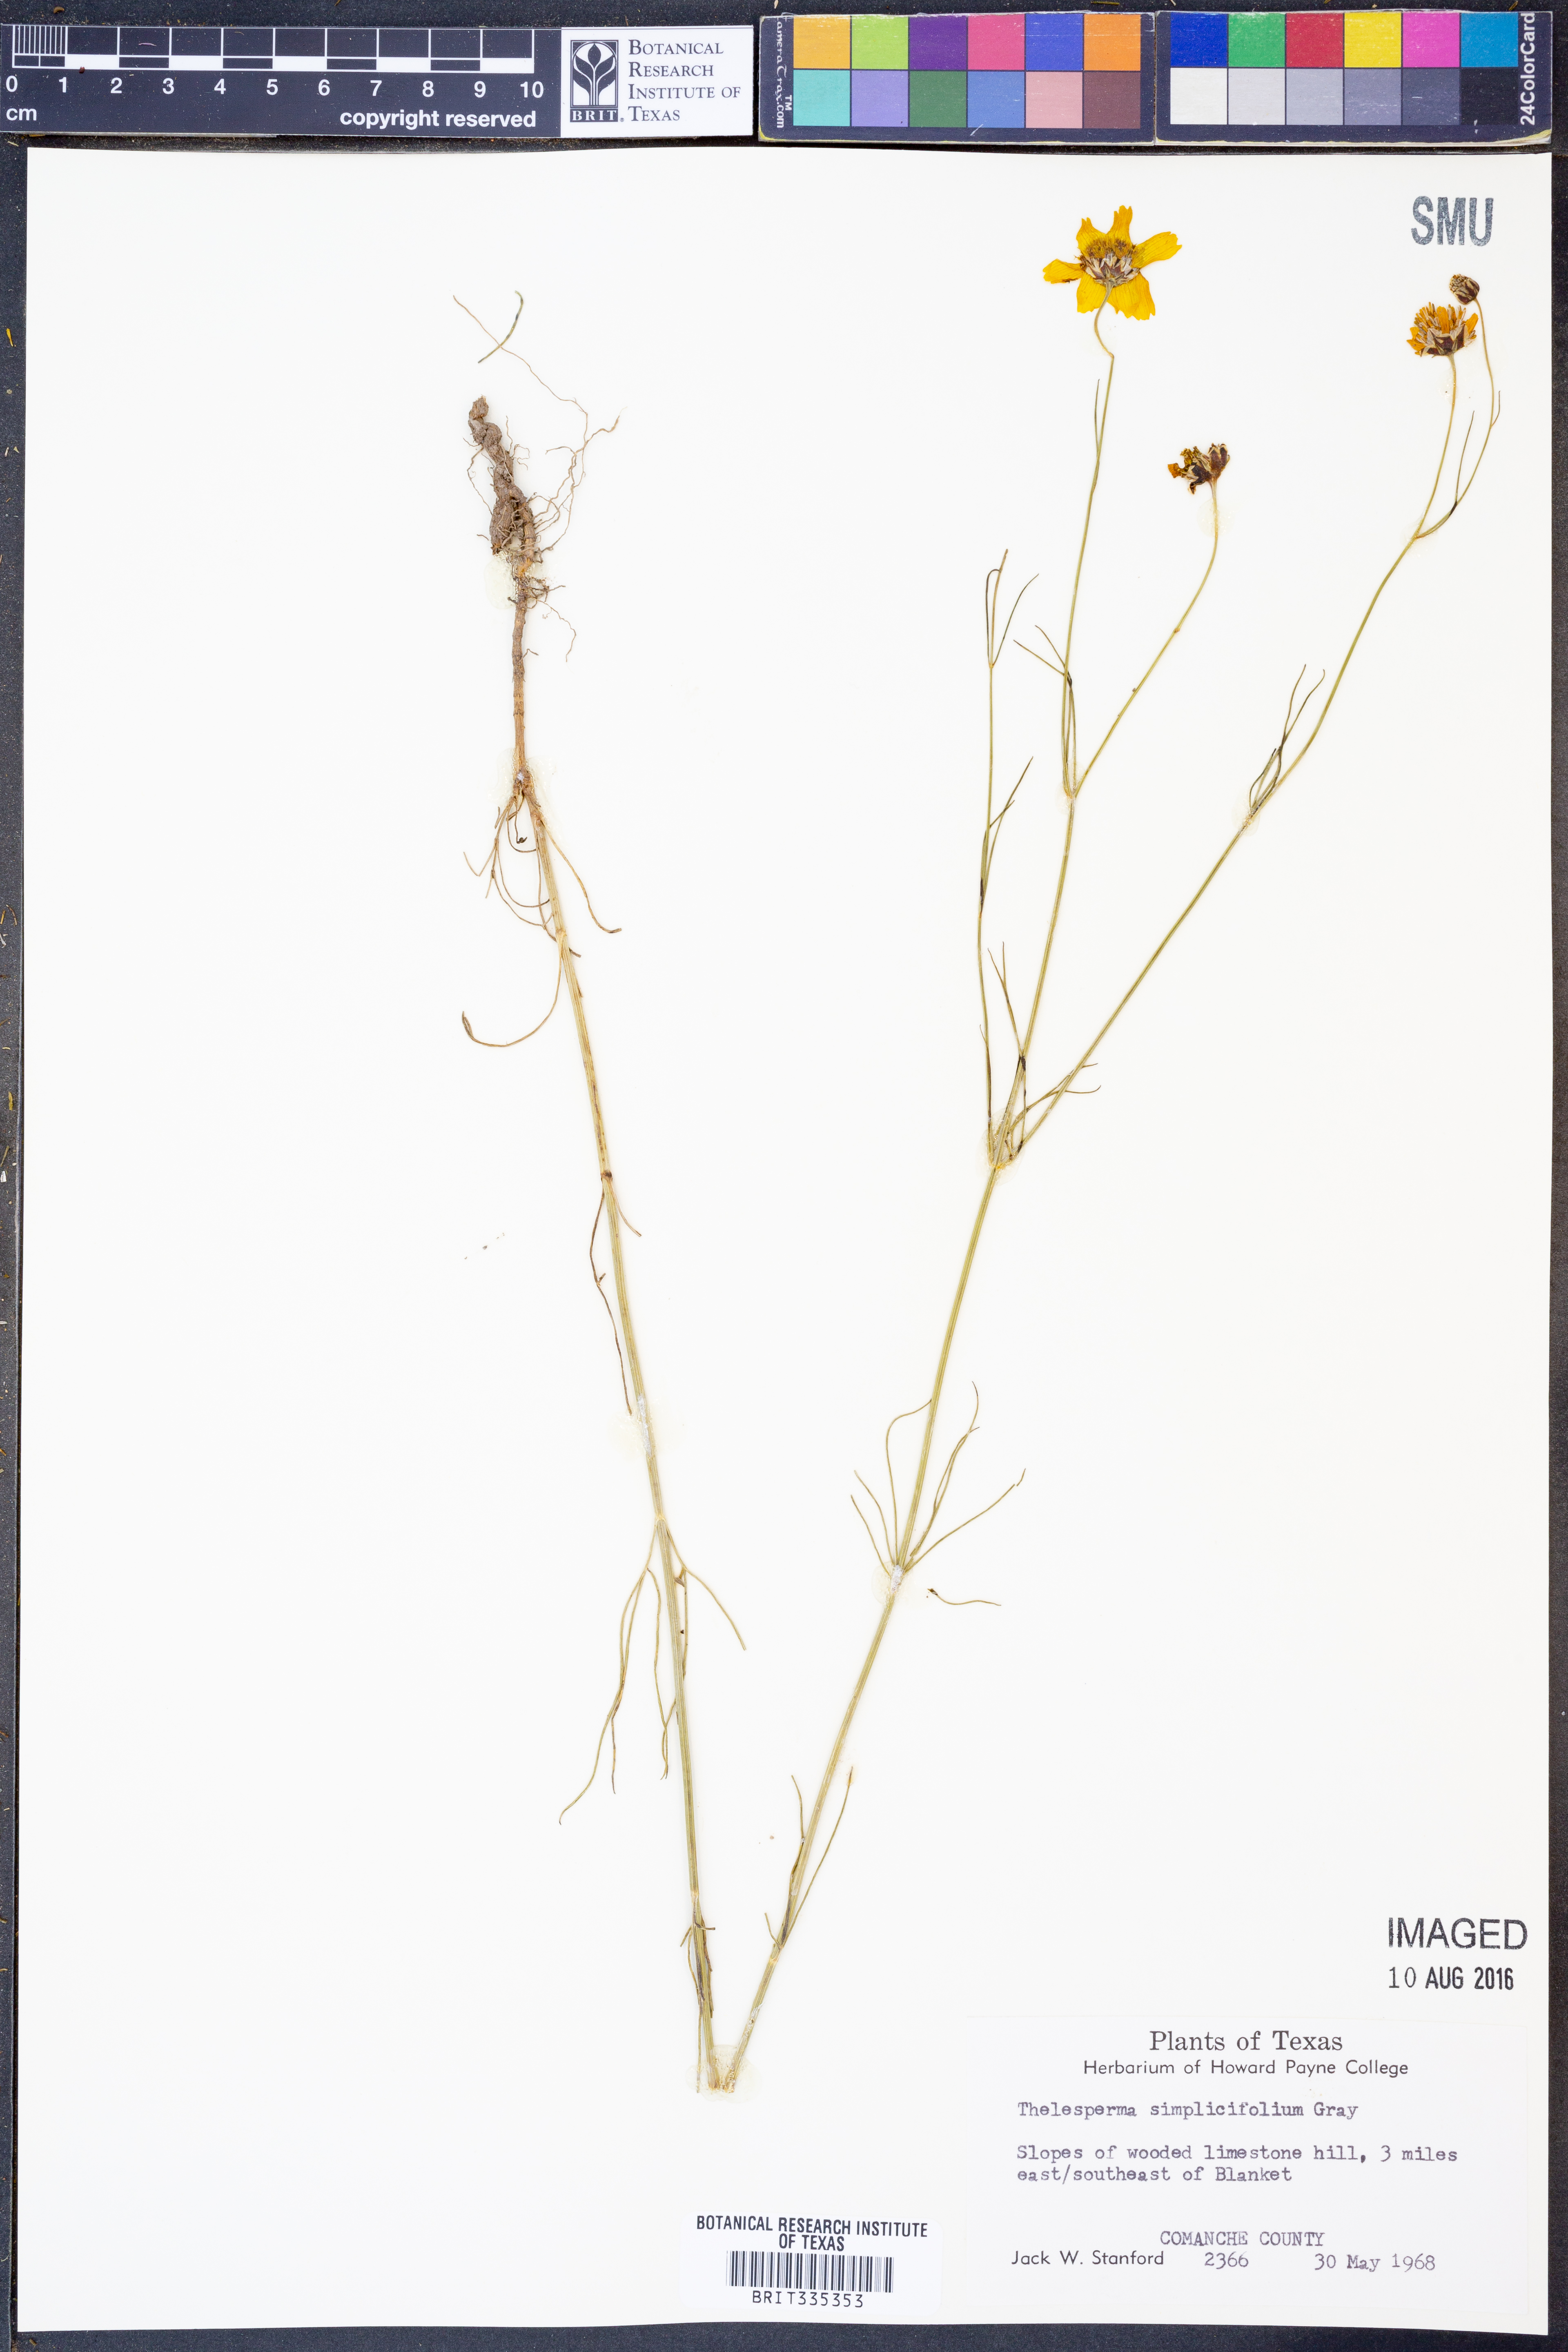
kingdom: Plantae
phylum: Tracheophyta
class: Magnoliopsida
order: Asterales
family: Asteraceae
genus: Thelesperma
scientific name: Thelesperma simplicifolium
